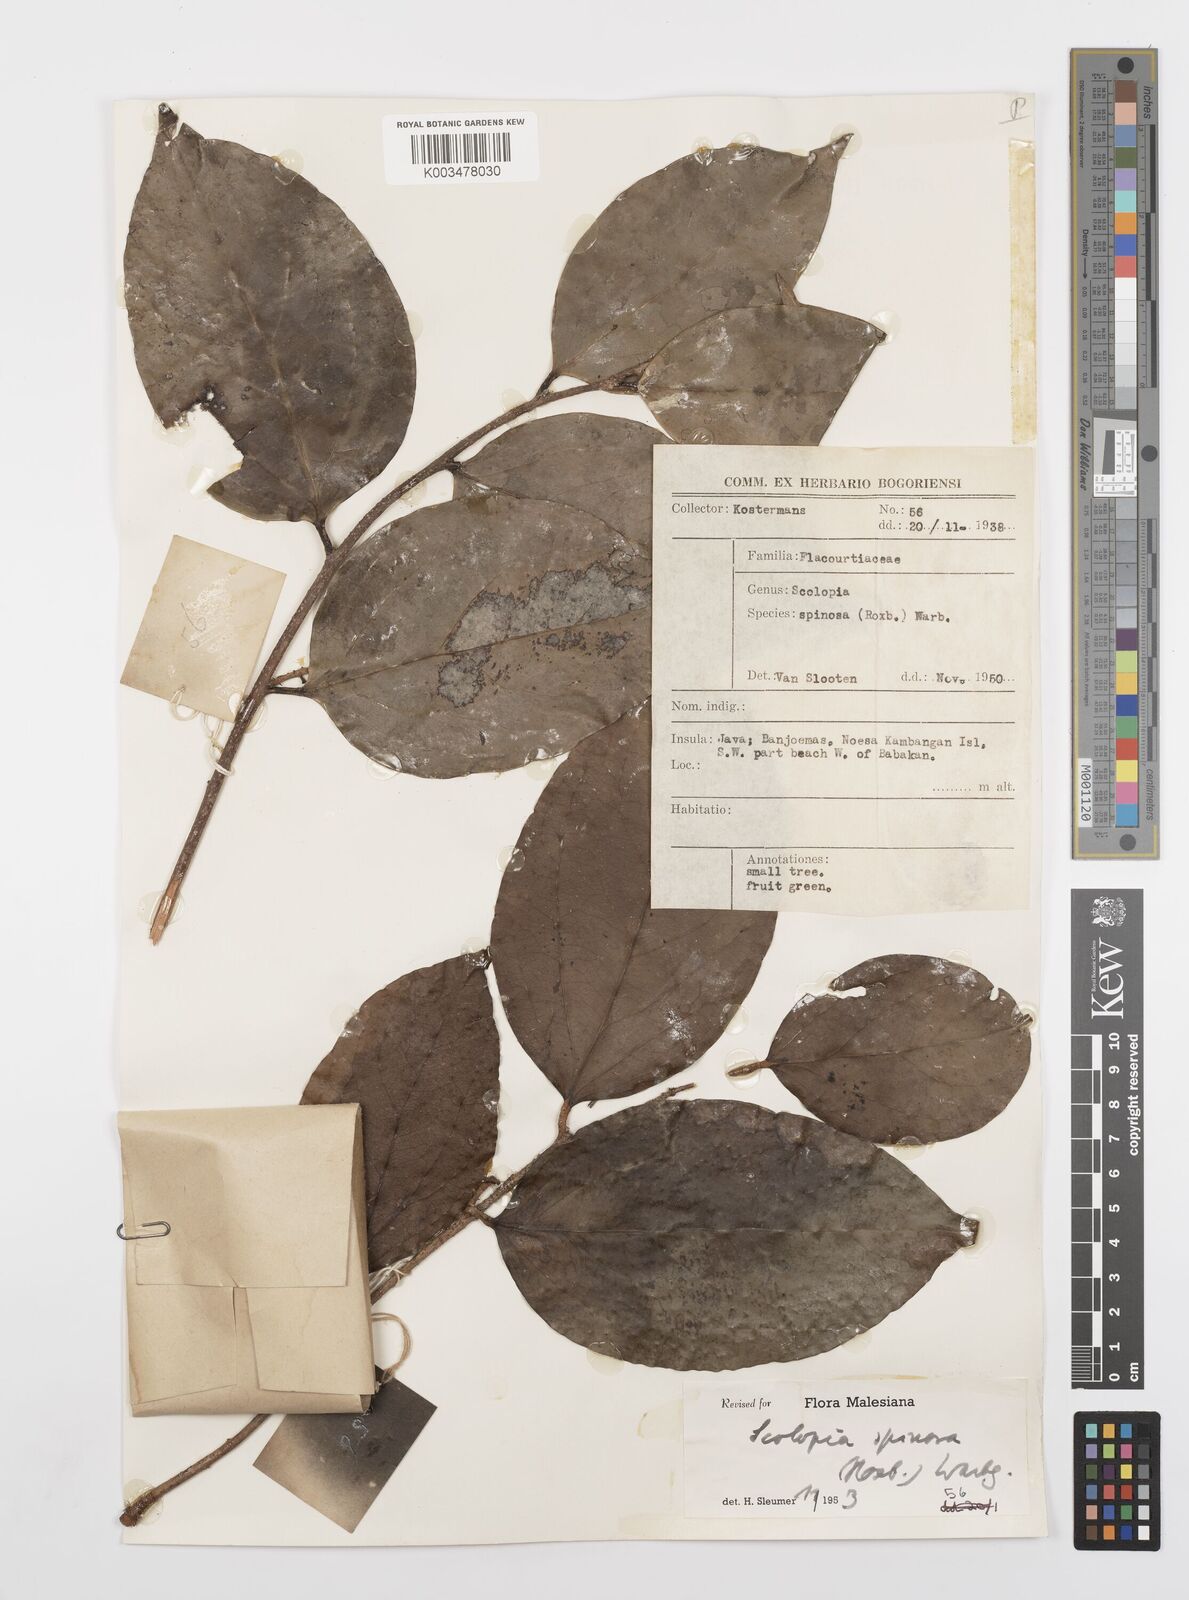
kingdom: Plantae
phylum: Tracheophyta
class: Magnoliopsida
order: Malpighiales
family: Salicaceae
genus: Scolopia
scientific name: Scolopia spinosa
